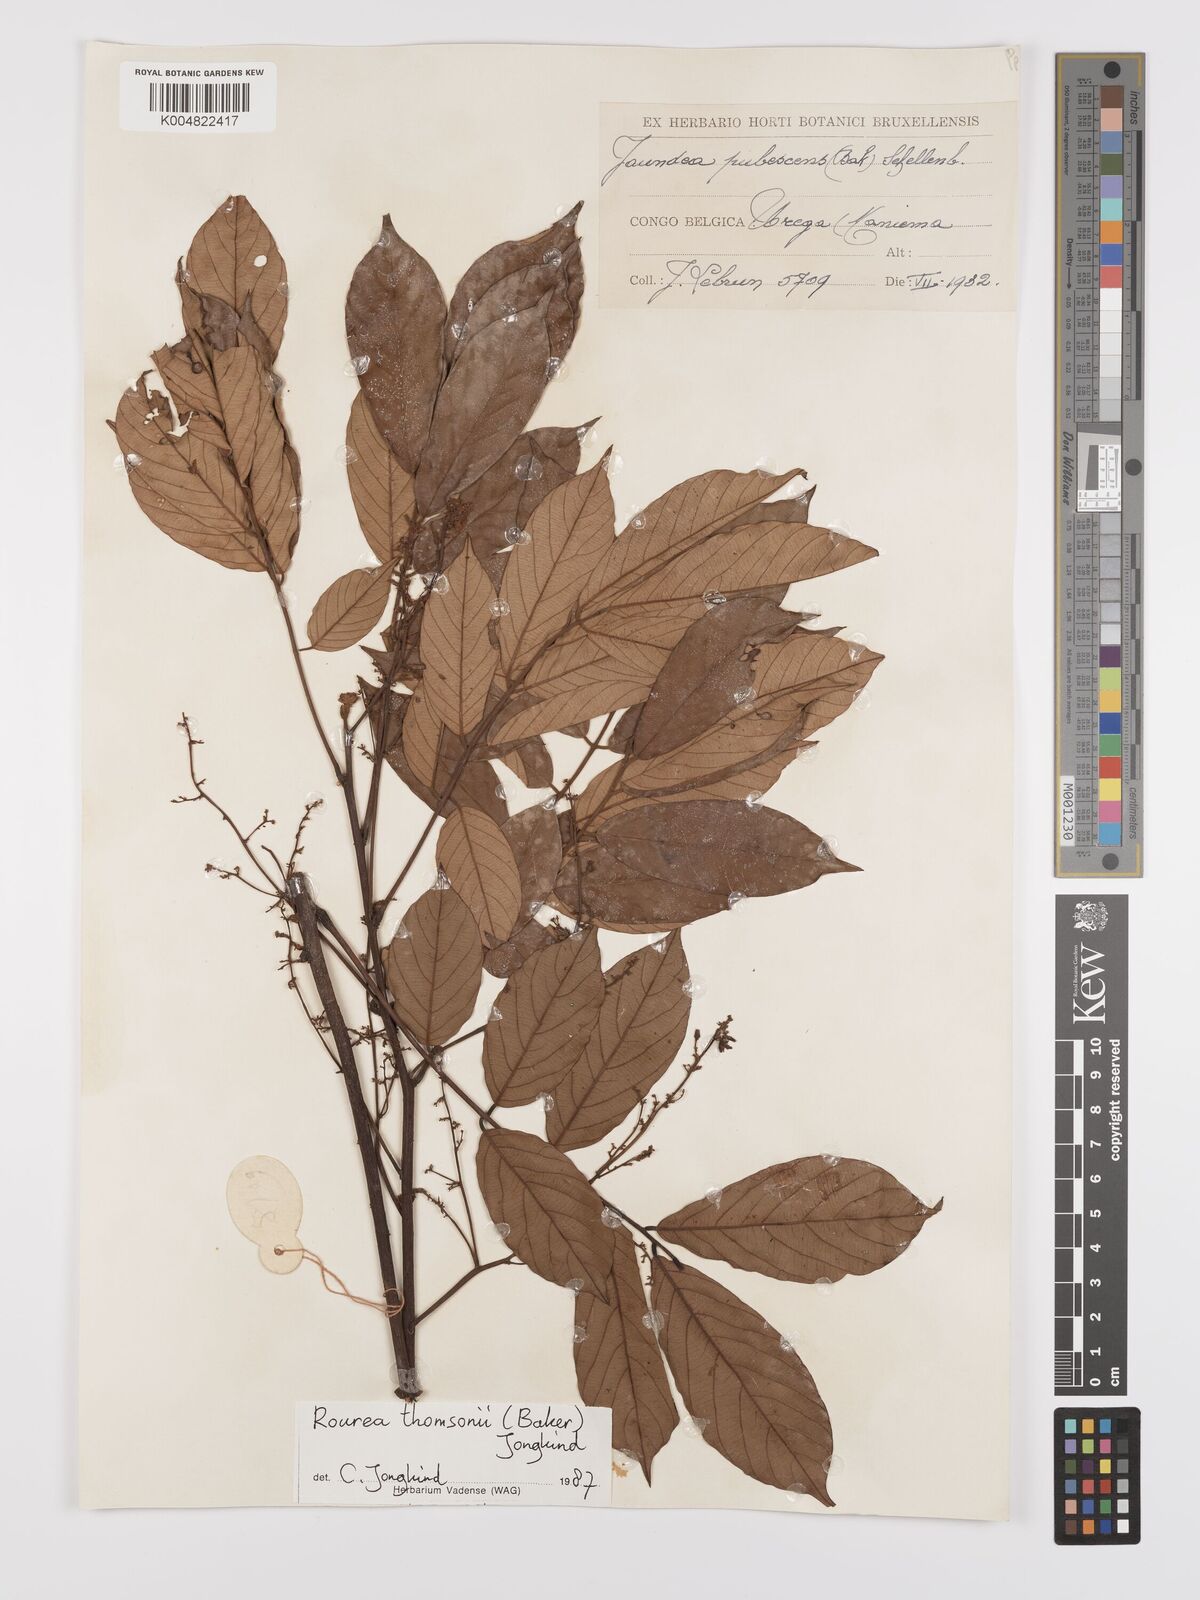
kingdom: Plantae
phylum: Tracheophyta
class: Magnoliopsida
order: Oxalidales
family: Connaraceae
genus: Rourea
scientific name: Rourea pubescens
